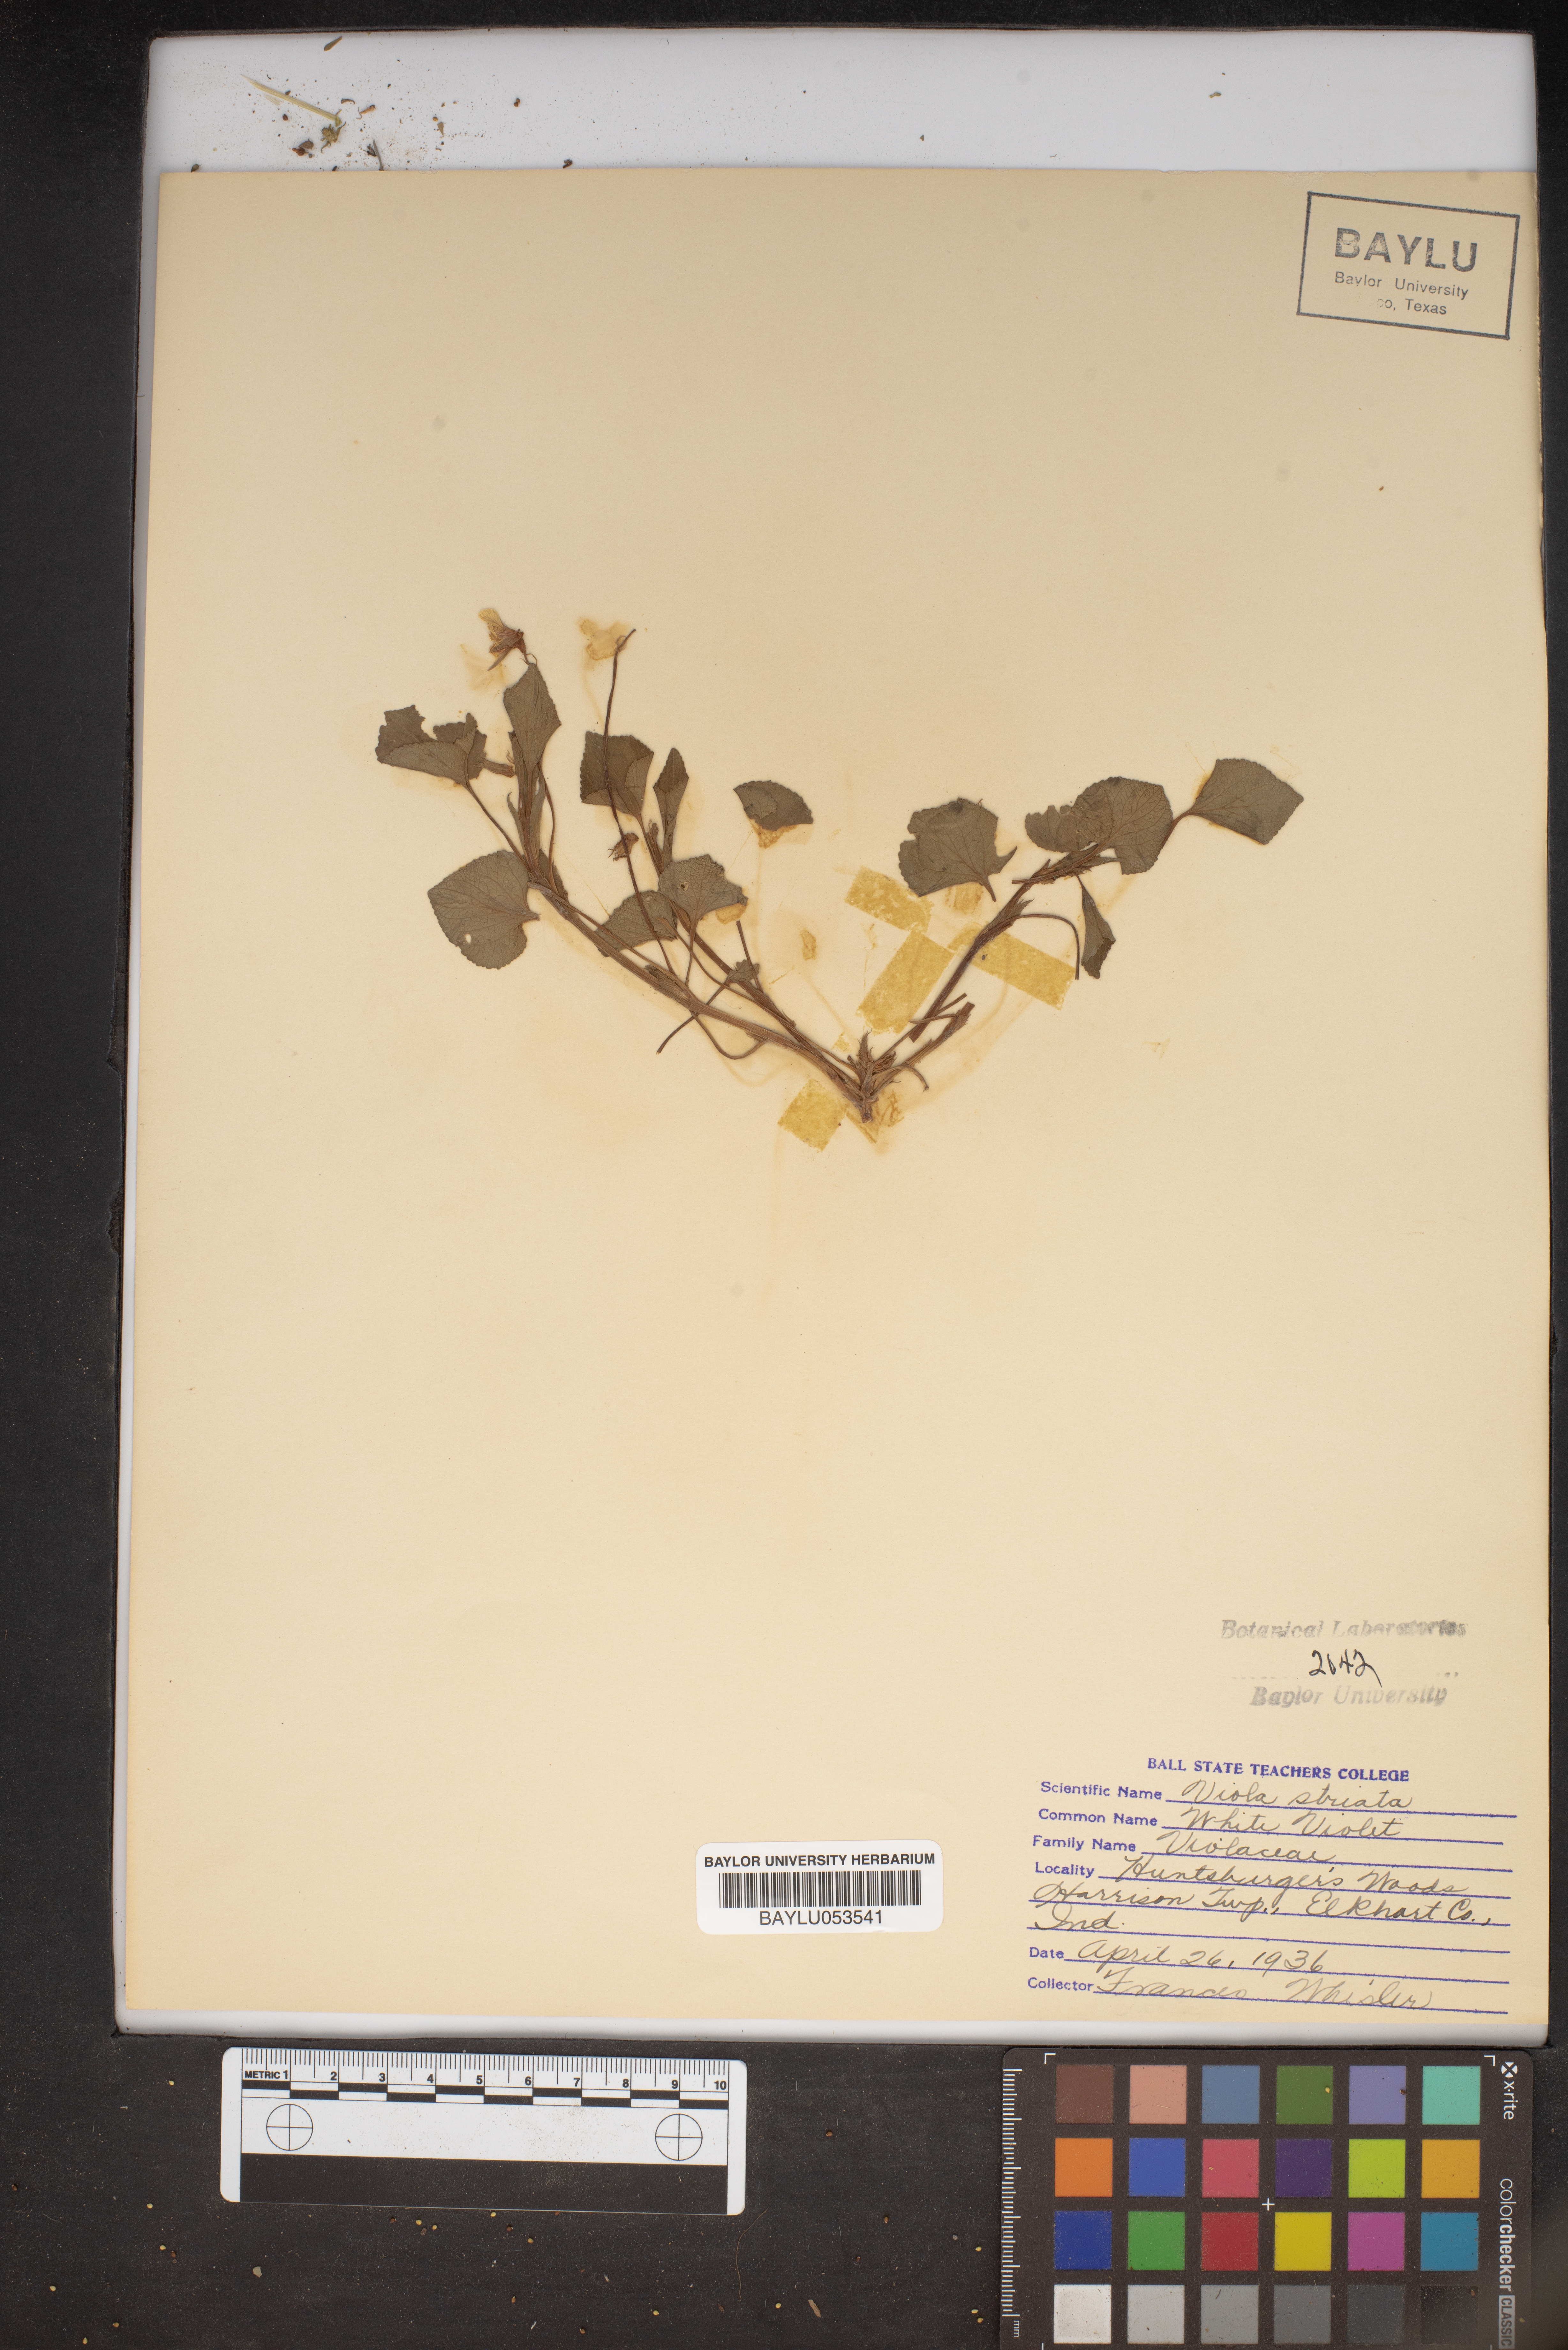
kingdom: Plantae
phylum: Tracheophyta
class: Magnoliopsida
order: Malpighiales
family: Violaceae
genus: Viola
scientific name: Viola striata
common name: Cream violet
